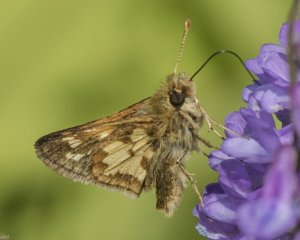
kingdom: Animalia
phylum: Arthropoda
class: Insecta
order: Lepidoptera
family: Hesperiidae
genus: Polites
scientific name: Polites coras
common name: Peck's Skipper
